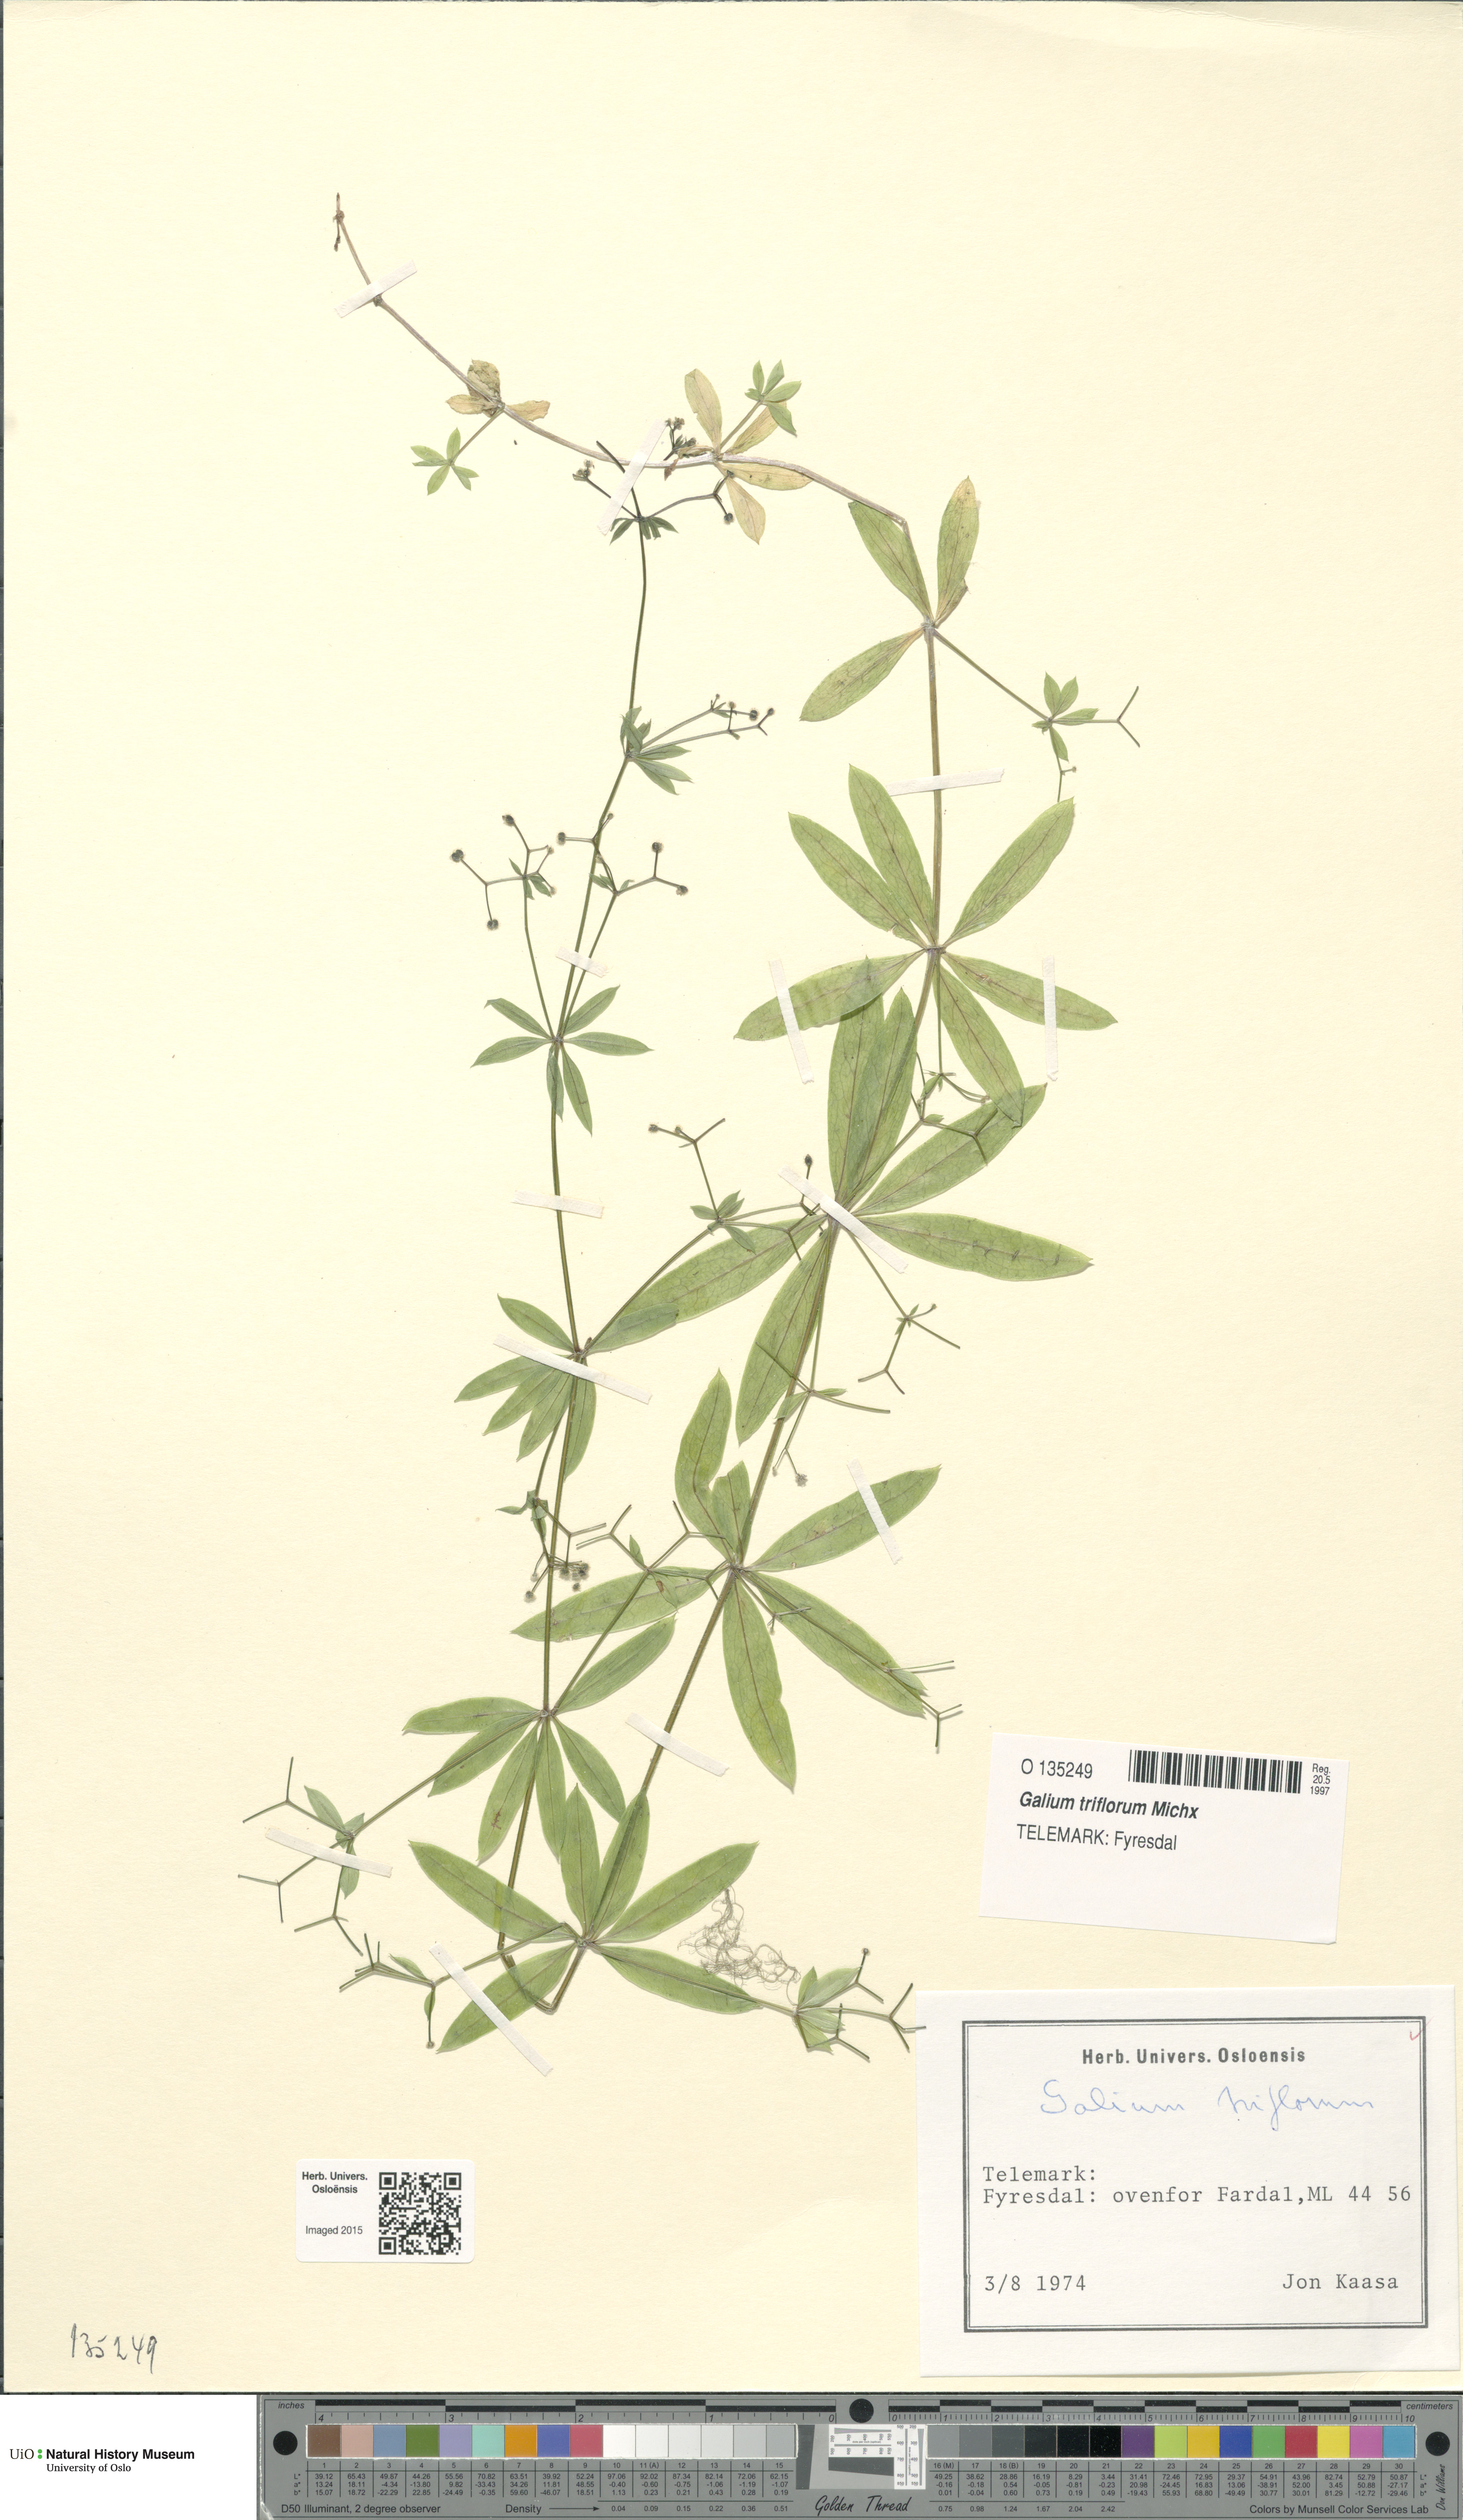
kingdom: Plantae
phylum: Tracheophyta
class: Magnoliopsida
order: Gentianales
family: Rubiaceae
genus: Galium
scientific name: Galium triflorum
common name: Fragrant bedstraw
